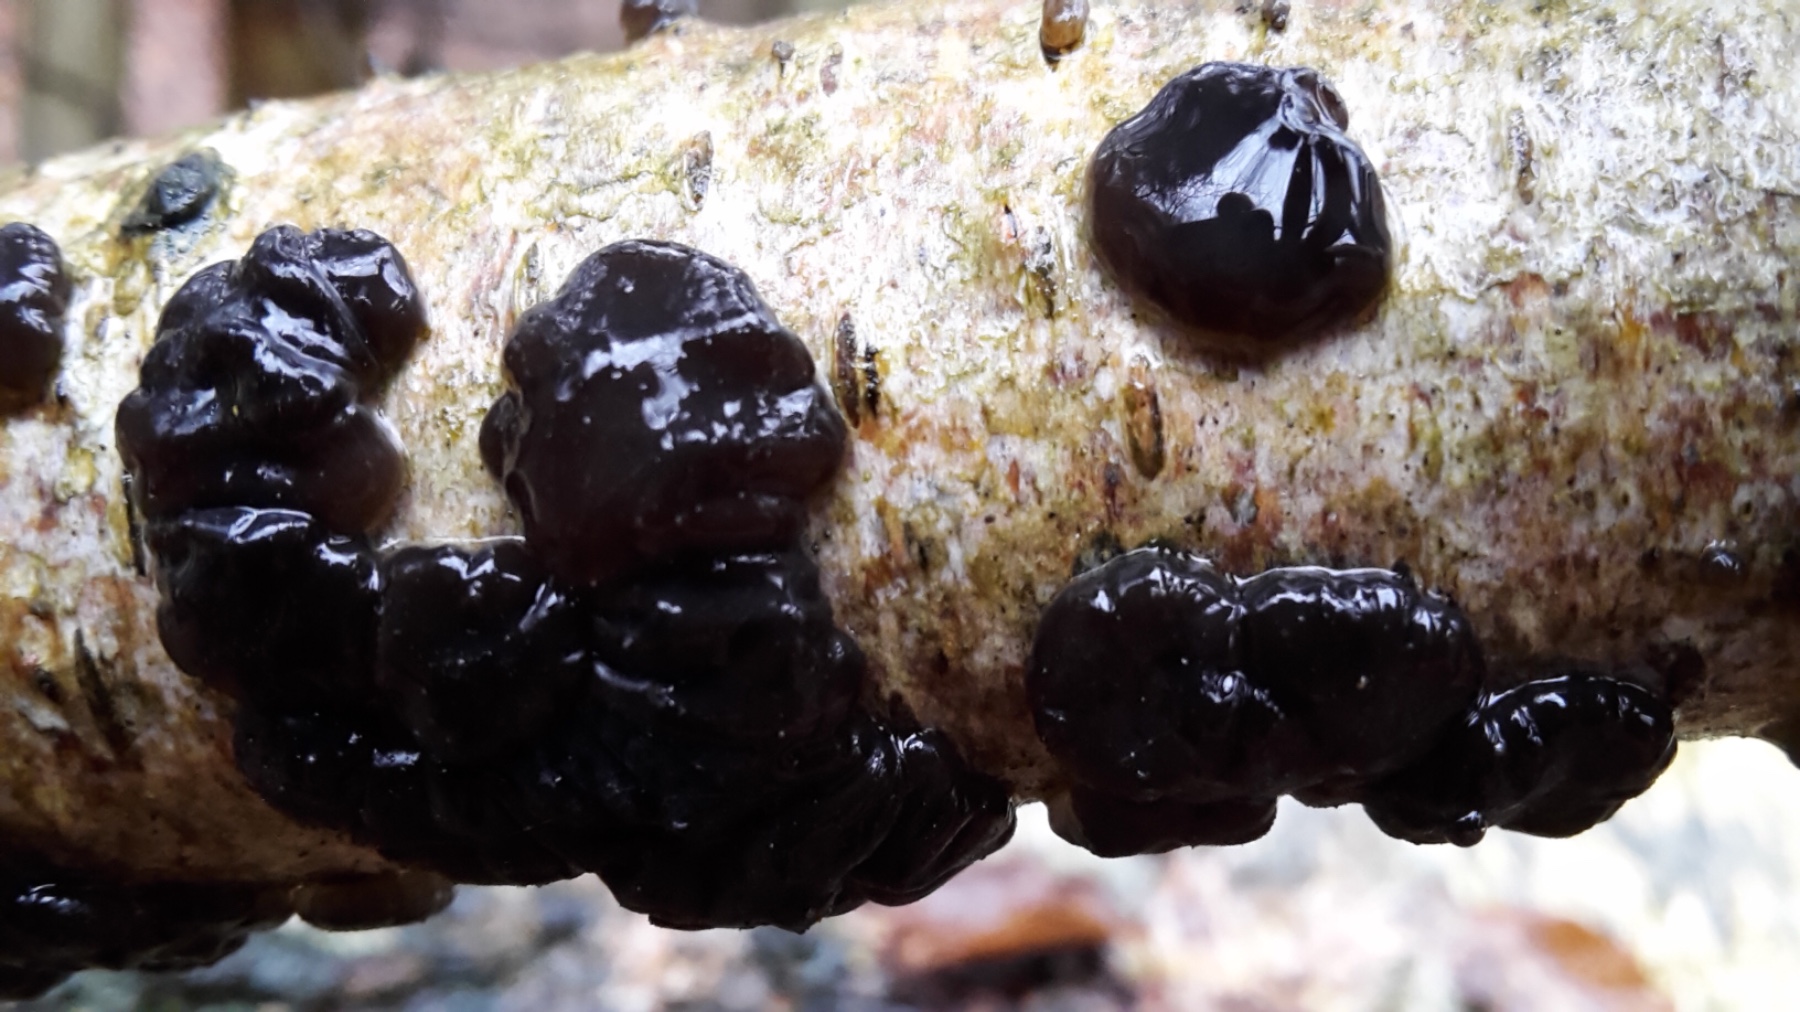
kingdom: Fungi
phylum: Basidiomycota
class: Agaricomycetes
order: Auriculariales
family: Auriculariaceae
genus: Exidia
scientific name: Exidia nigricans
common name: almindelig bævretop
